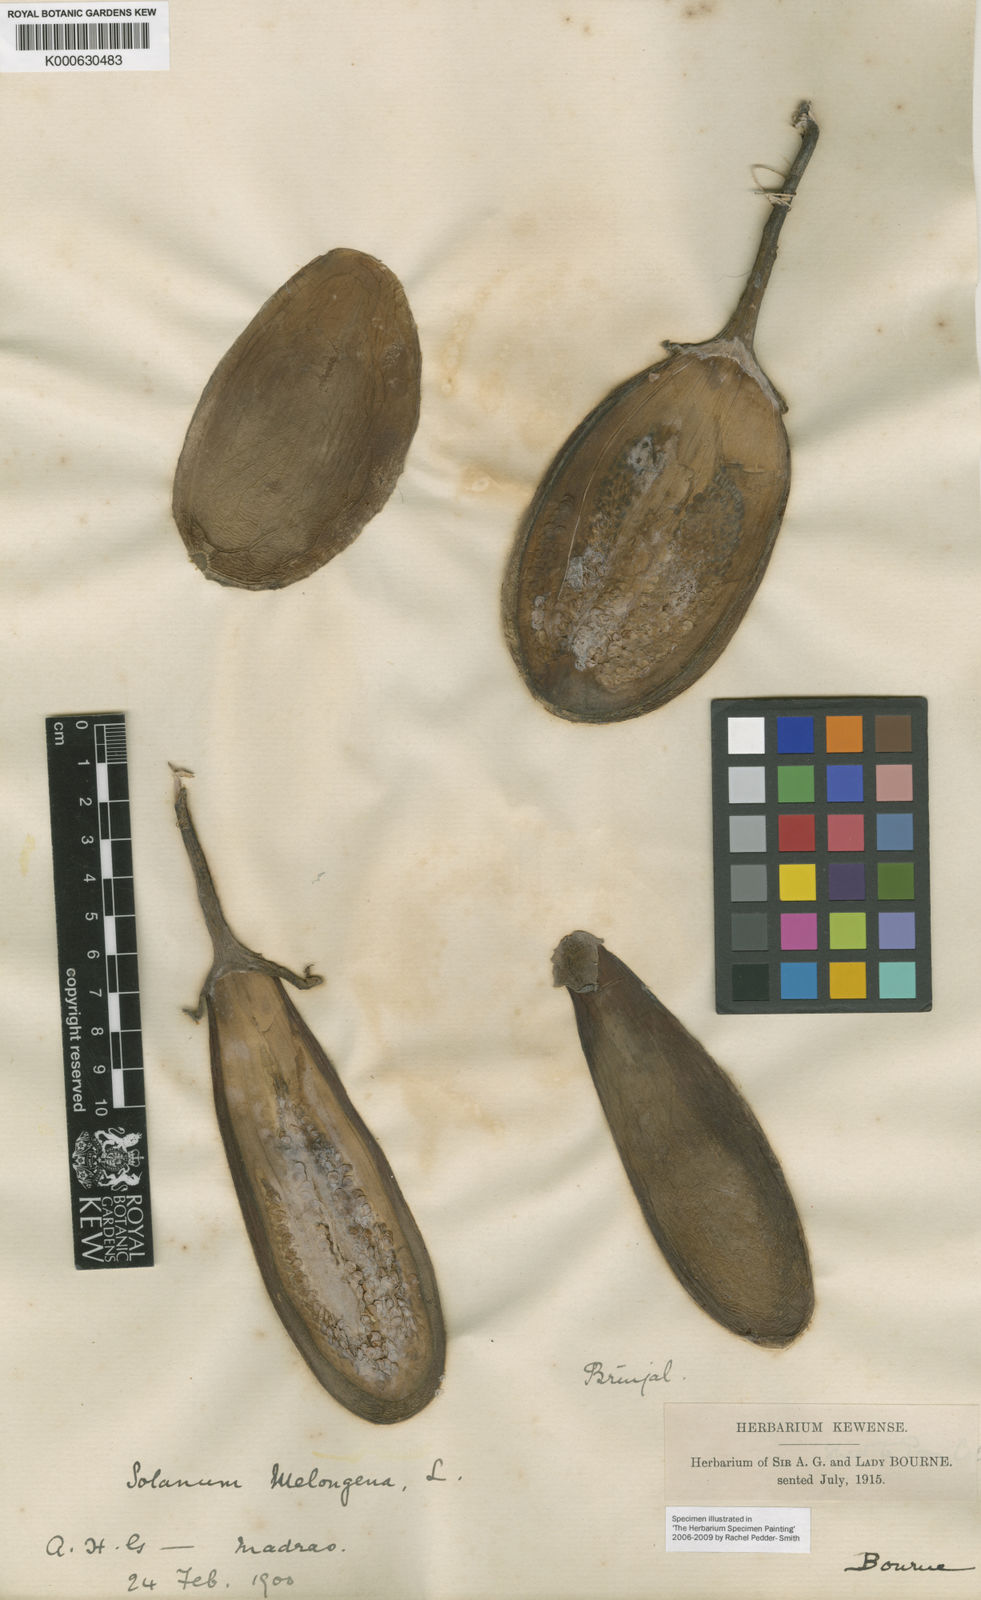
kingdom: Plantae
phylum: Tracheophyta
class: Magnoliopsida
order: Solanales
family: Solanaceae
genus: Solanum
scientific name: Solanum melongena
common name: Eggplant
